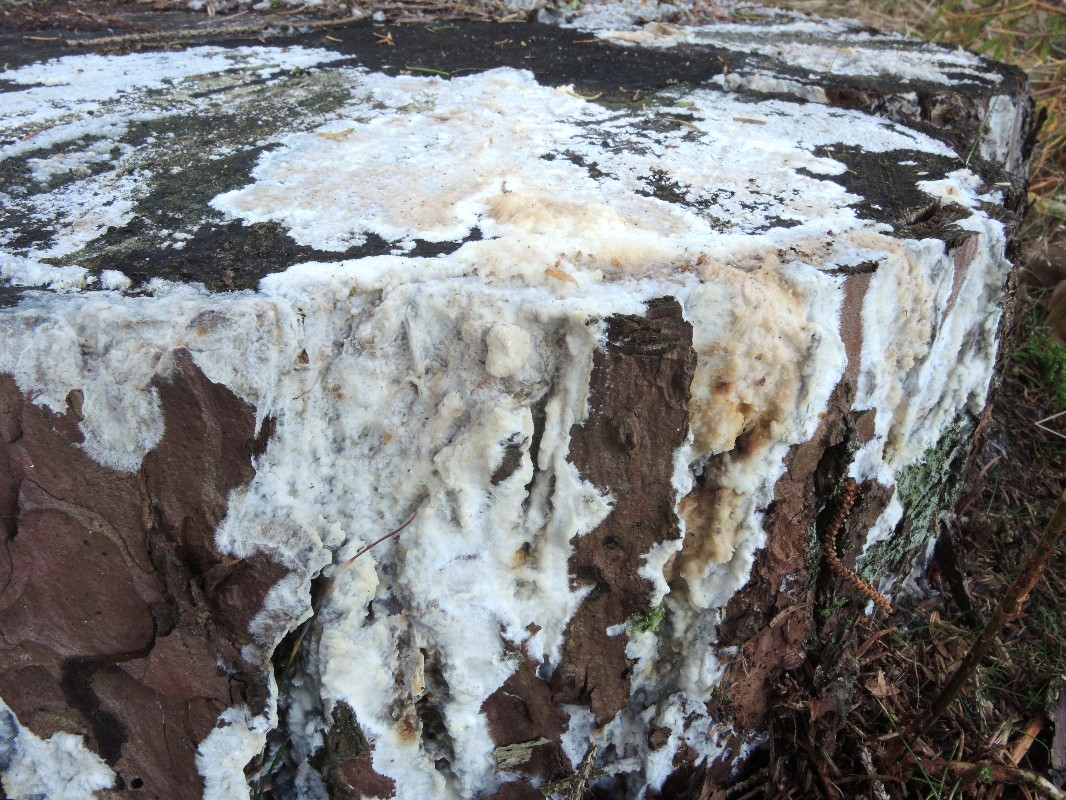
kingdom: Fungi
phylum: Basidiomycota
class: Agaricomycetes
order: Polyporales
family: Phanerochaetaceae
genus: Phlebiopsis
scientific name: Phlebiopsis gigantea
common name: kæmpebarksvamp
